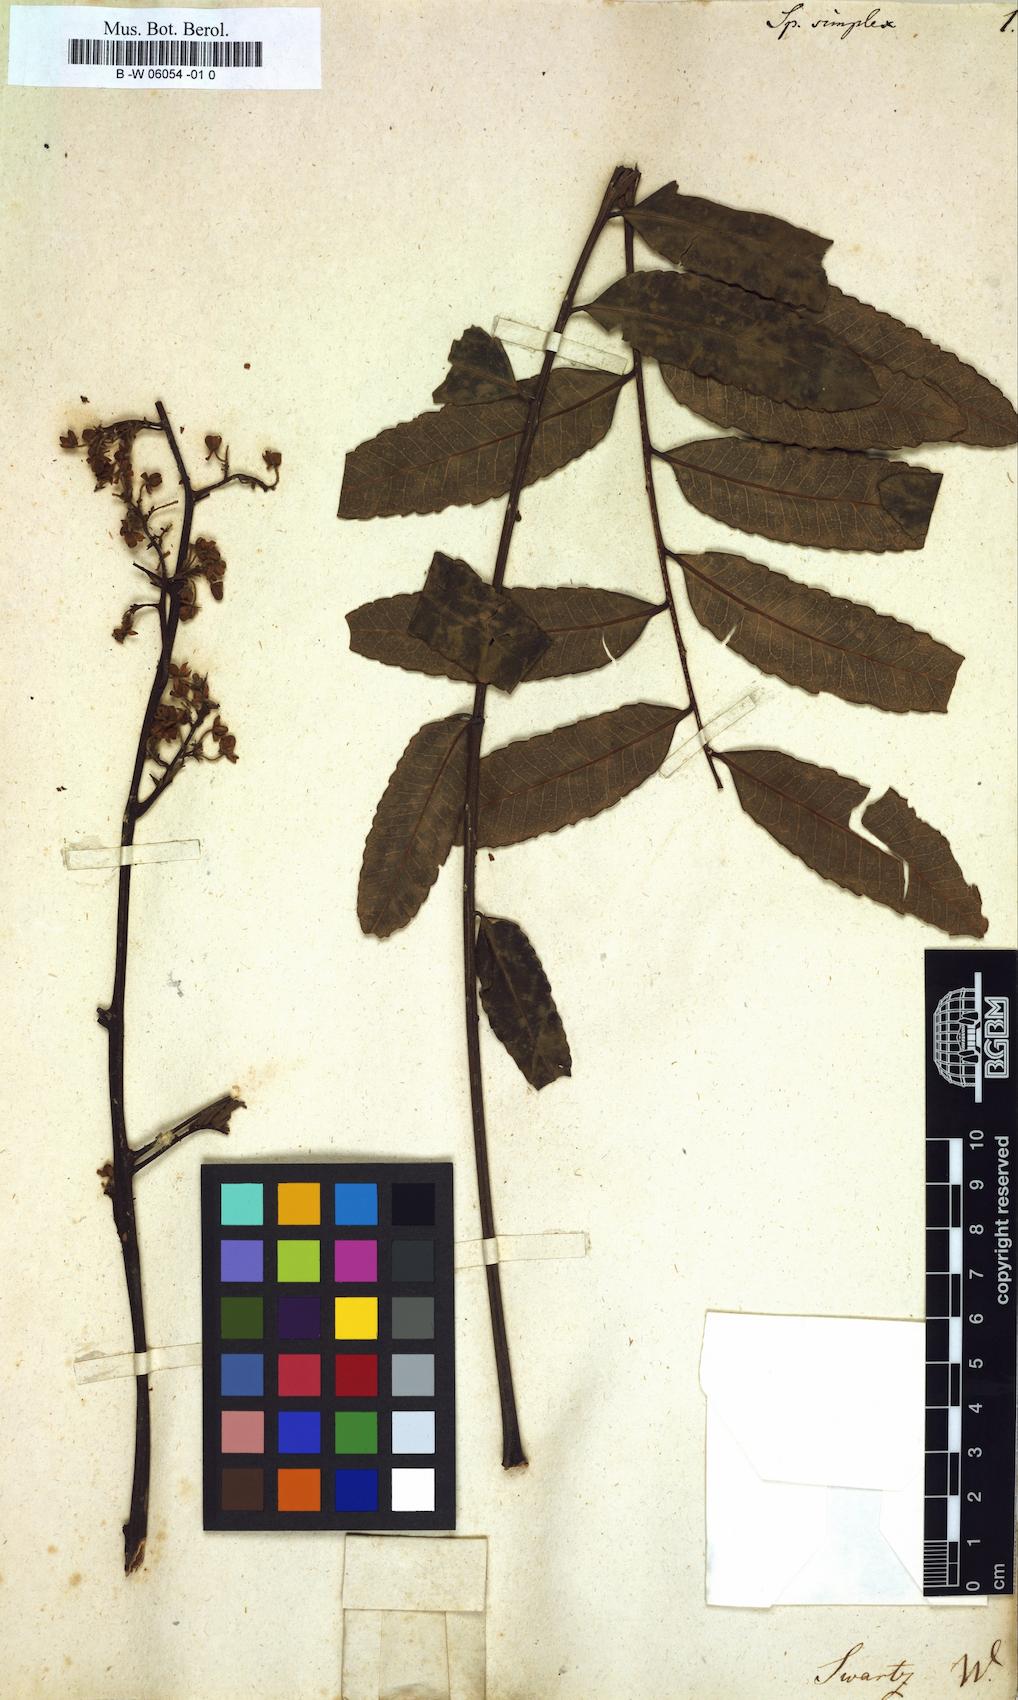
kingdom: Plantae
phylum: Tracheophyta
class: Magnoliopsida
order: Sapindales
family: Rutaceae
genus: Spathelia
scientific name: Spathelia simplex
